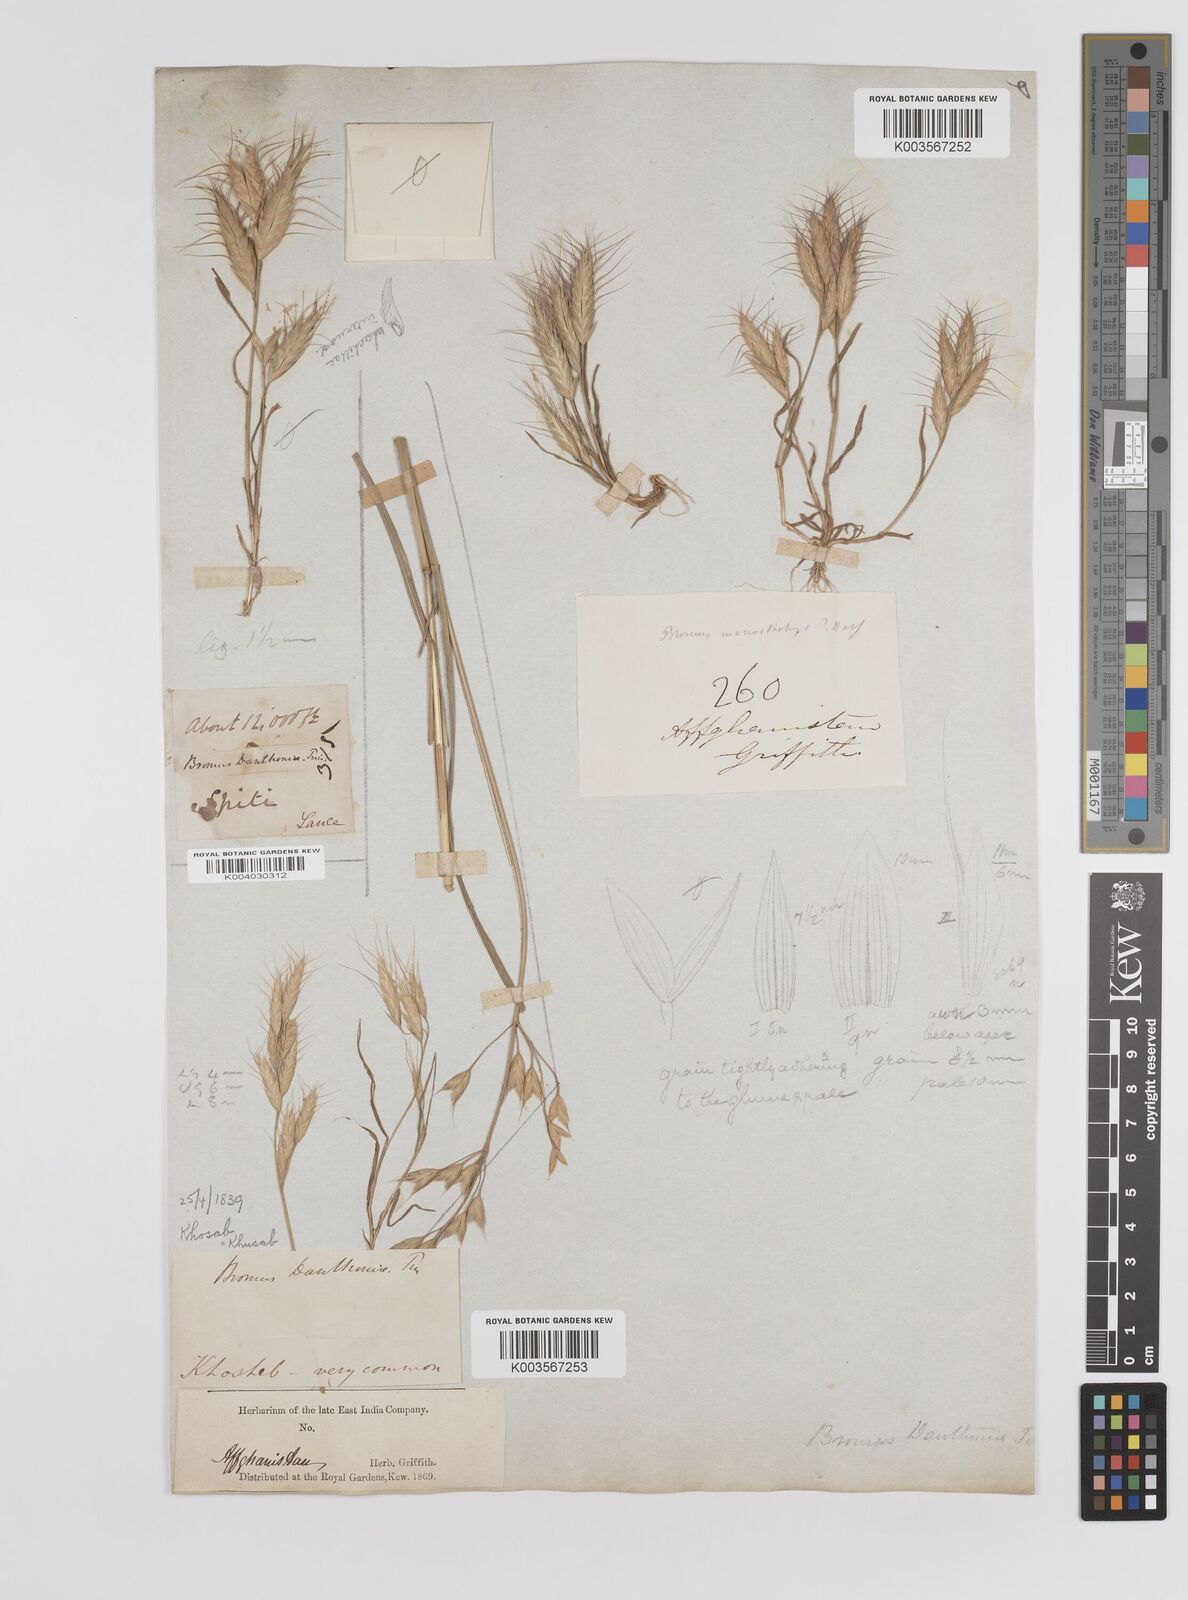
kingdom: Plantae
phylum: Tracheophyta
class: Liliopsida
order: Poales
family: Poaceae
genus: Bromus
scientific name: Bromus danthoniae
